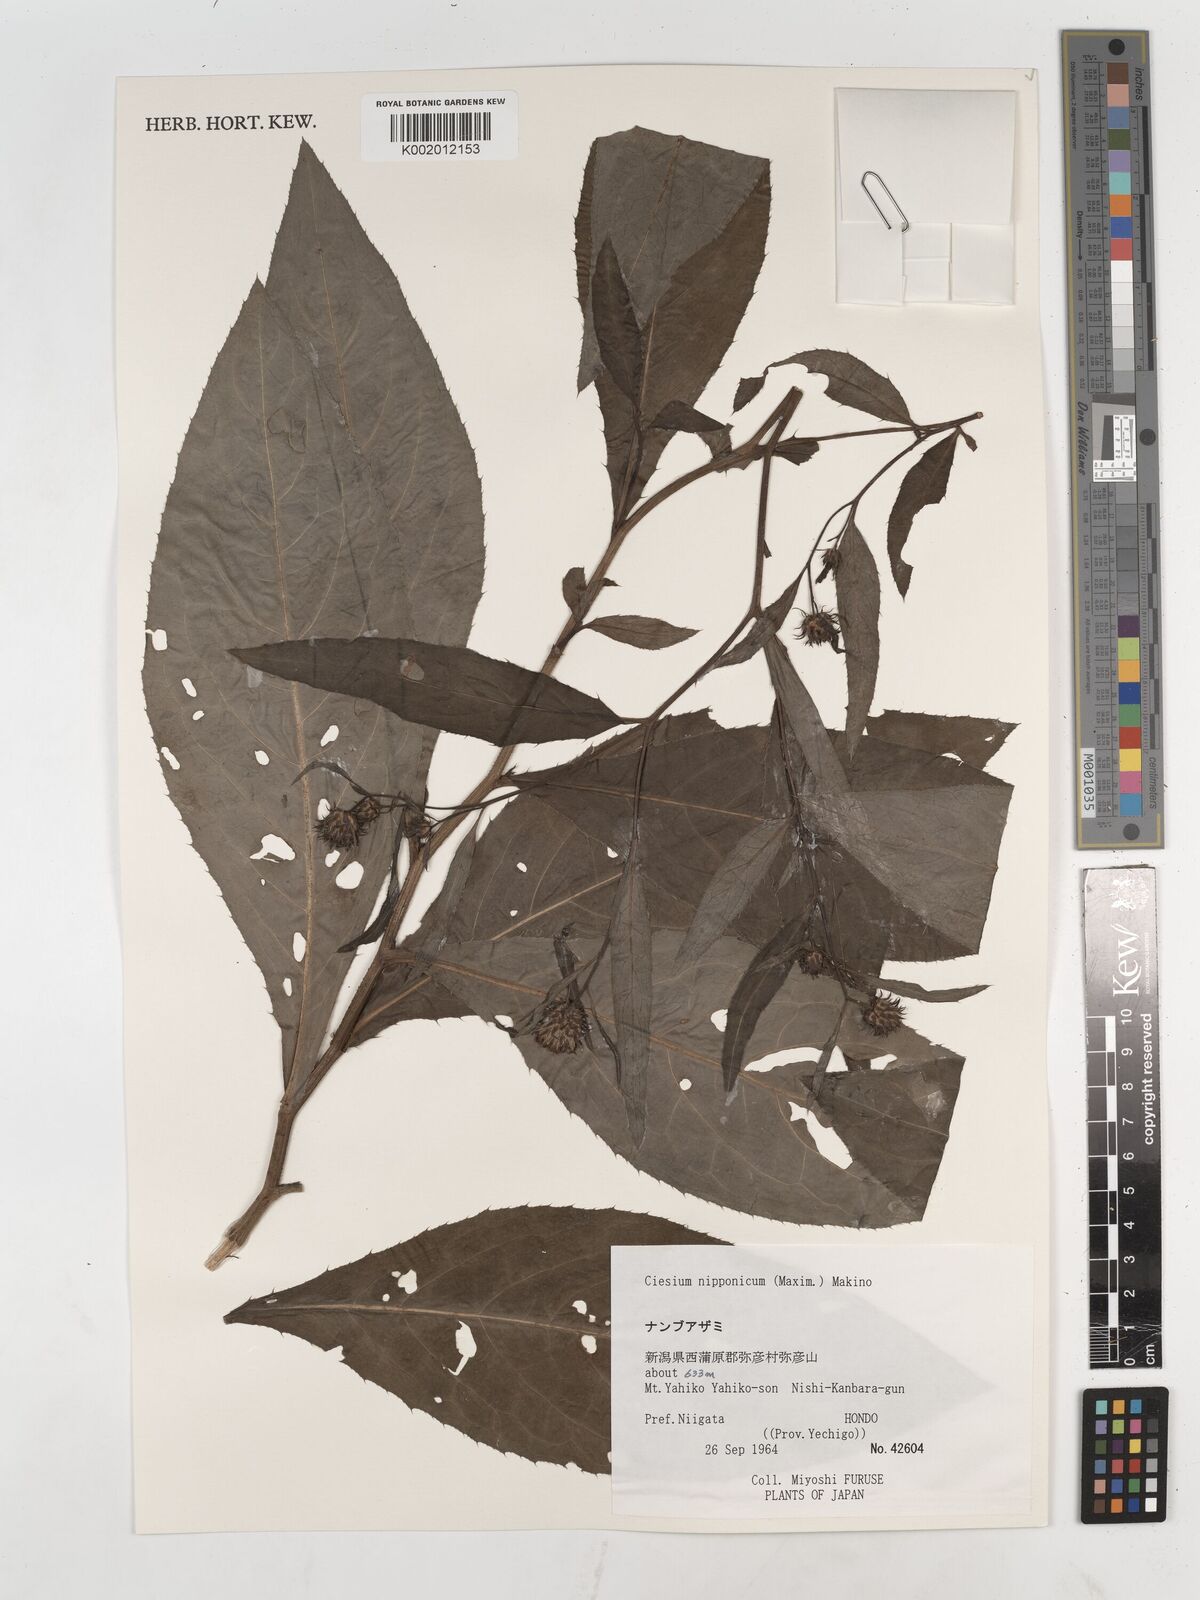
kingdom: Plantae
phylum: Tracheophyta
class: Magnoliopsida
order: Asterales
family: Asteraceae
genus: Cirsium
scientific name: Cirsium nippoense
